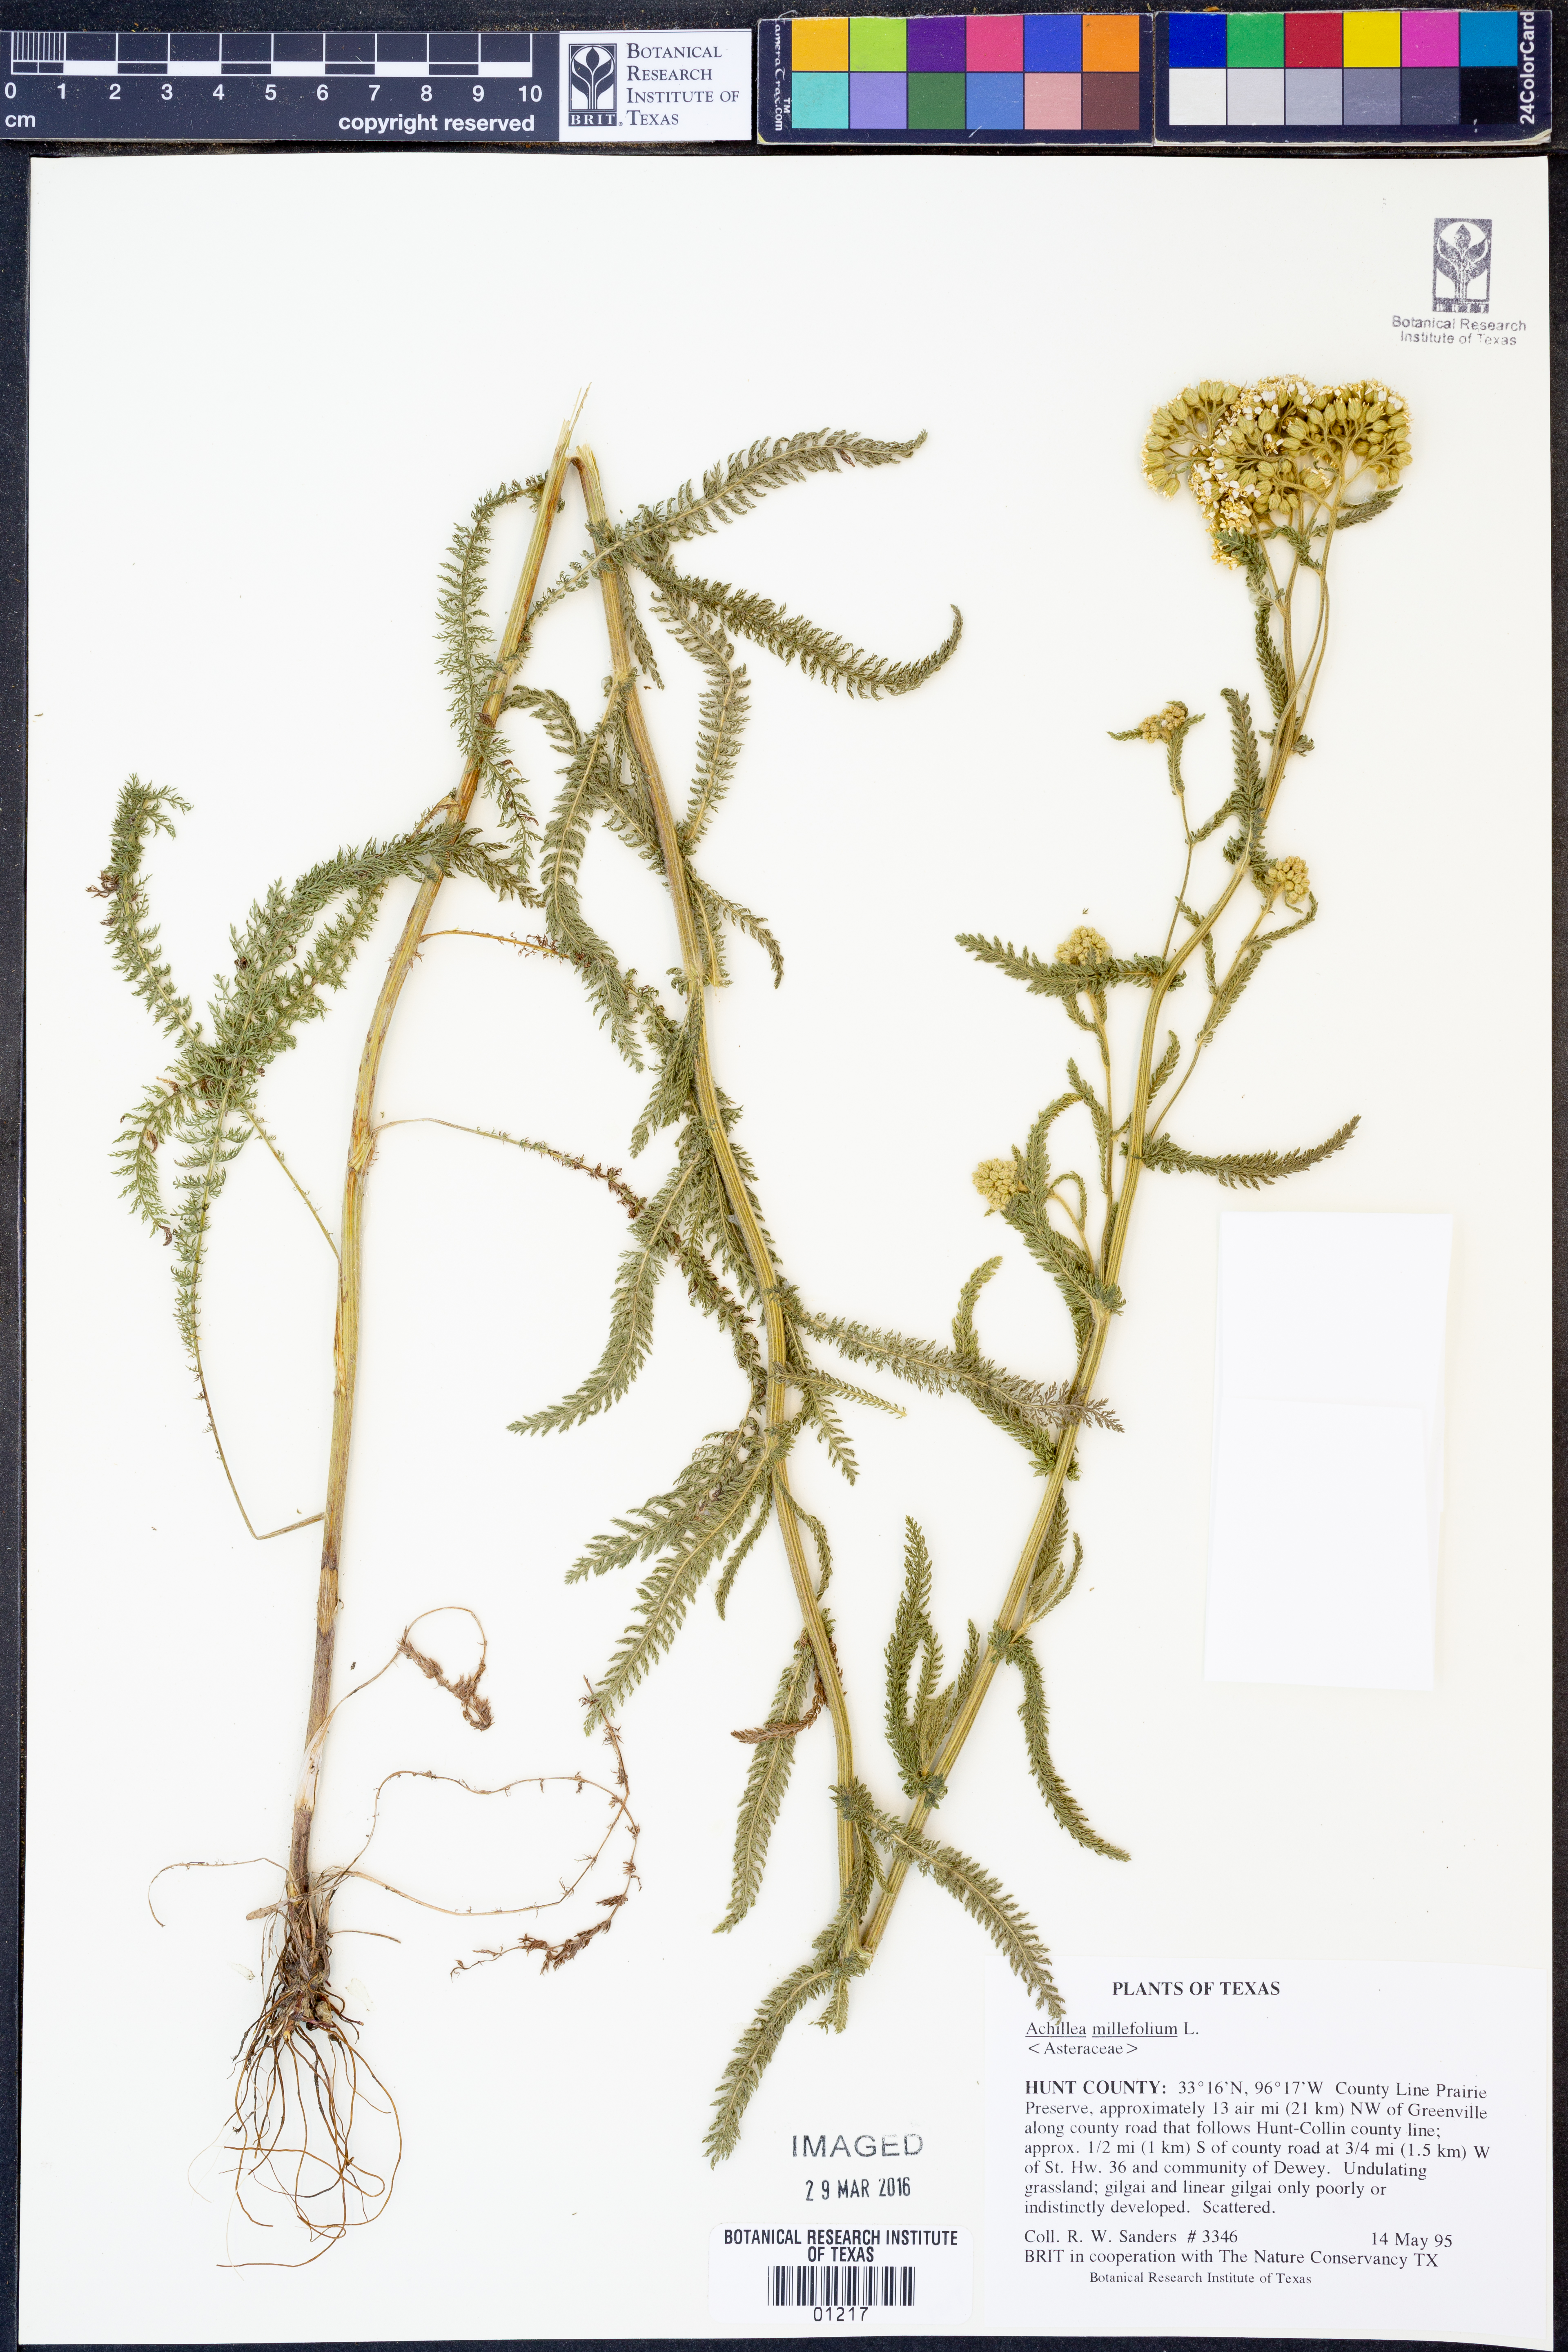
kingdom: Plantae
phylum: Tracheophyta
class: Magnoliopsida
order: Asterales
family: Asteraceae
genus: Achillea
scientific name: Achillea millefolium
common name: Yarrow
